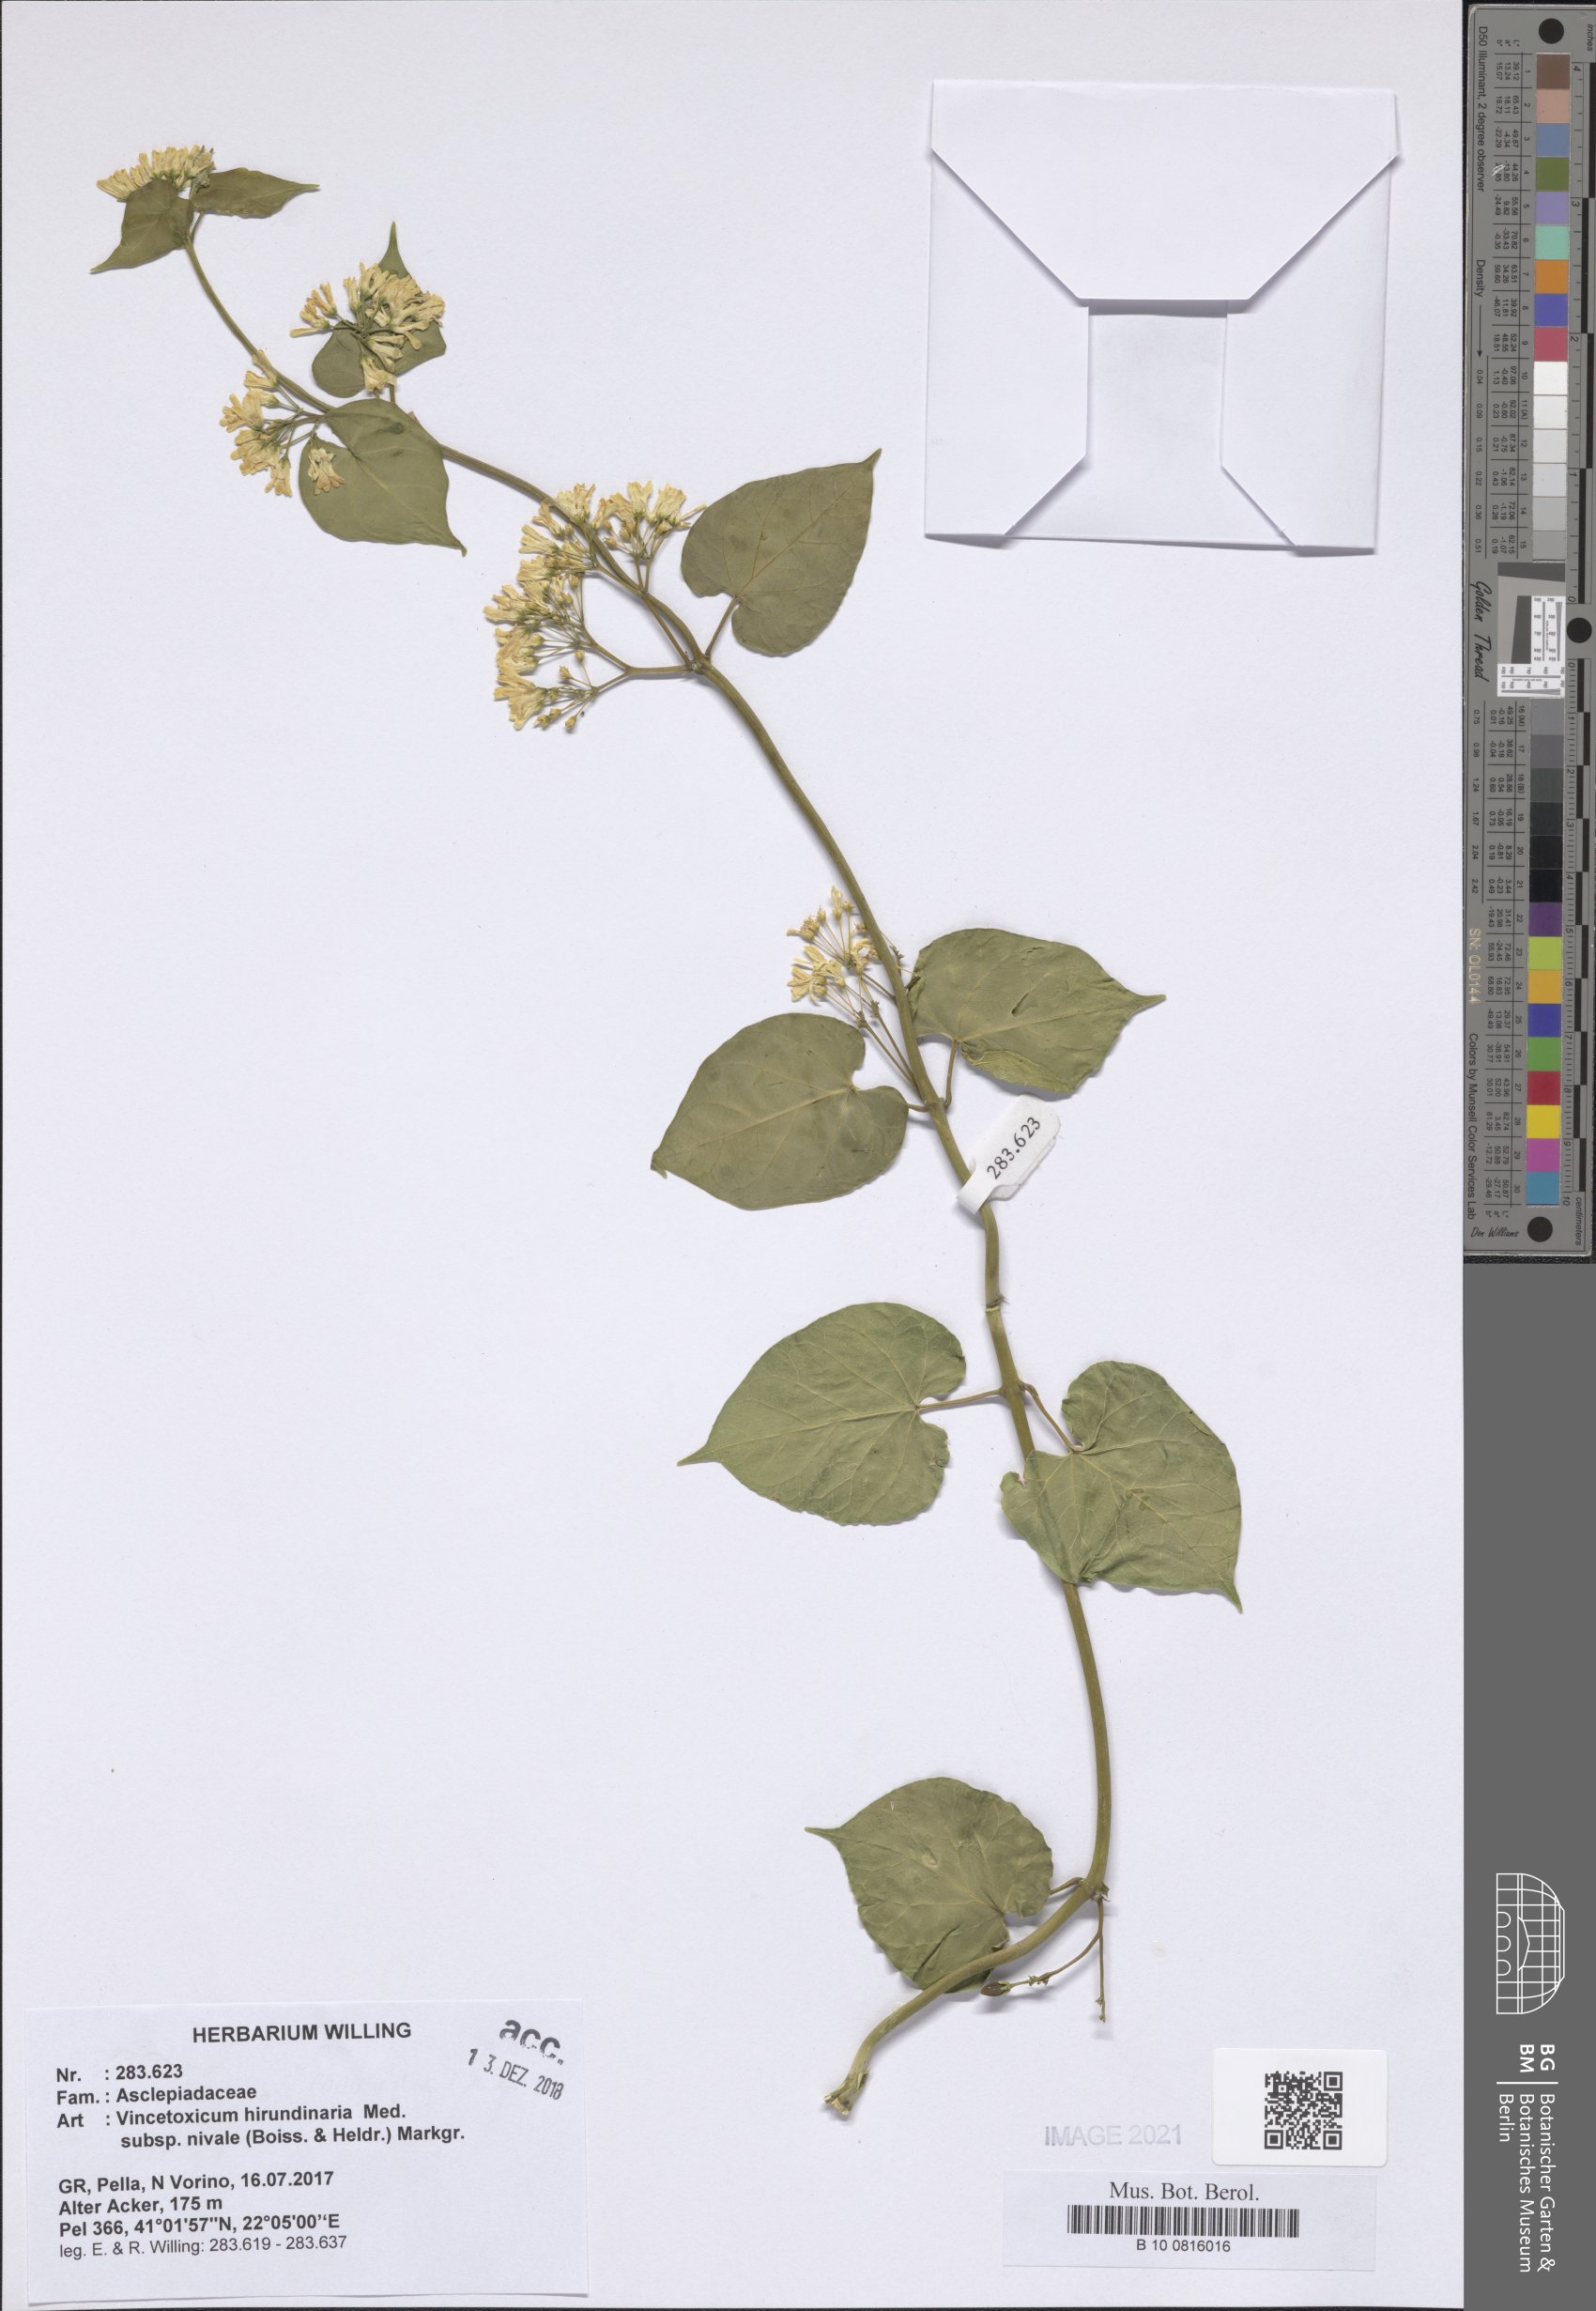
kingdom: Plantae
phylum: Tracheophyta
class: Magnoliopsida
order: Gentianales
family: Apocynaceae
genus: Vincetoxicum
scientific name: Vincetoxicum hirundinaria
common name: White swallowwort
